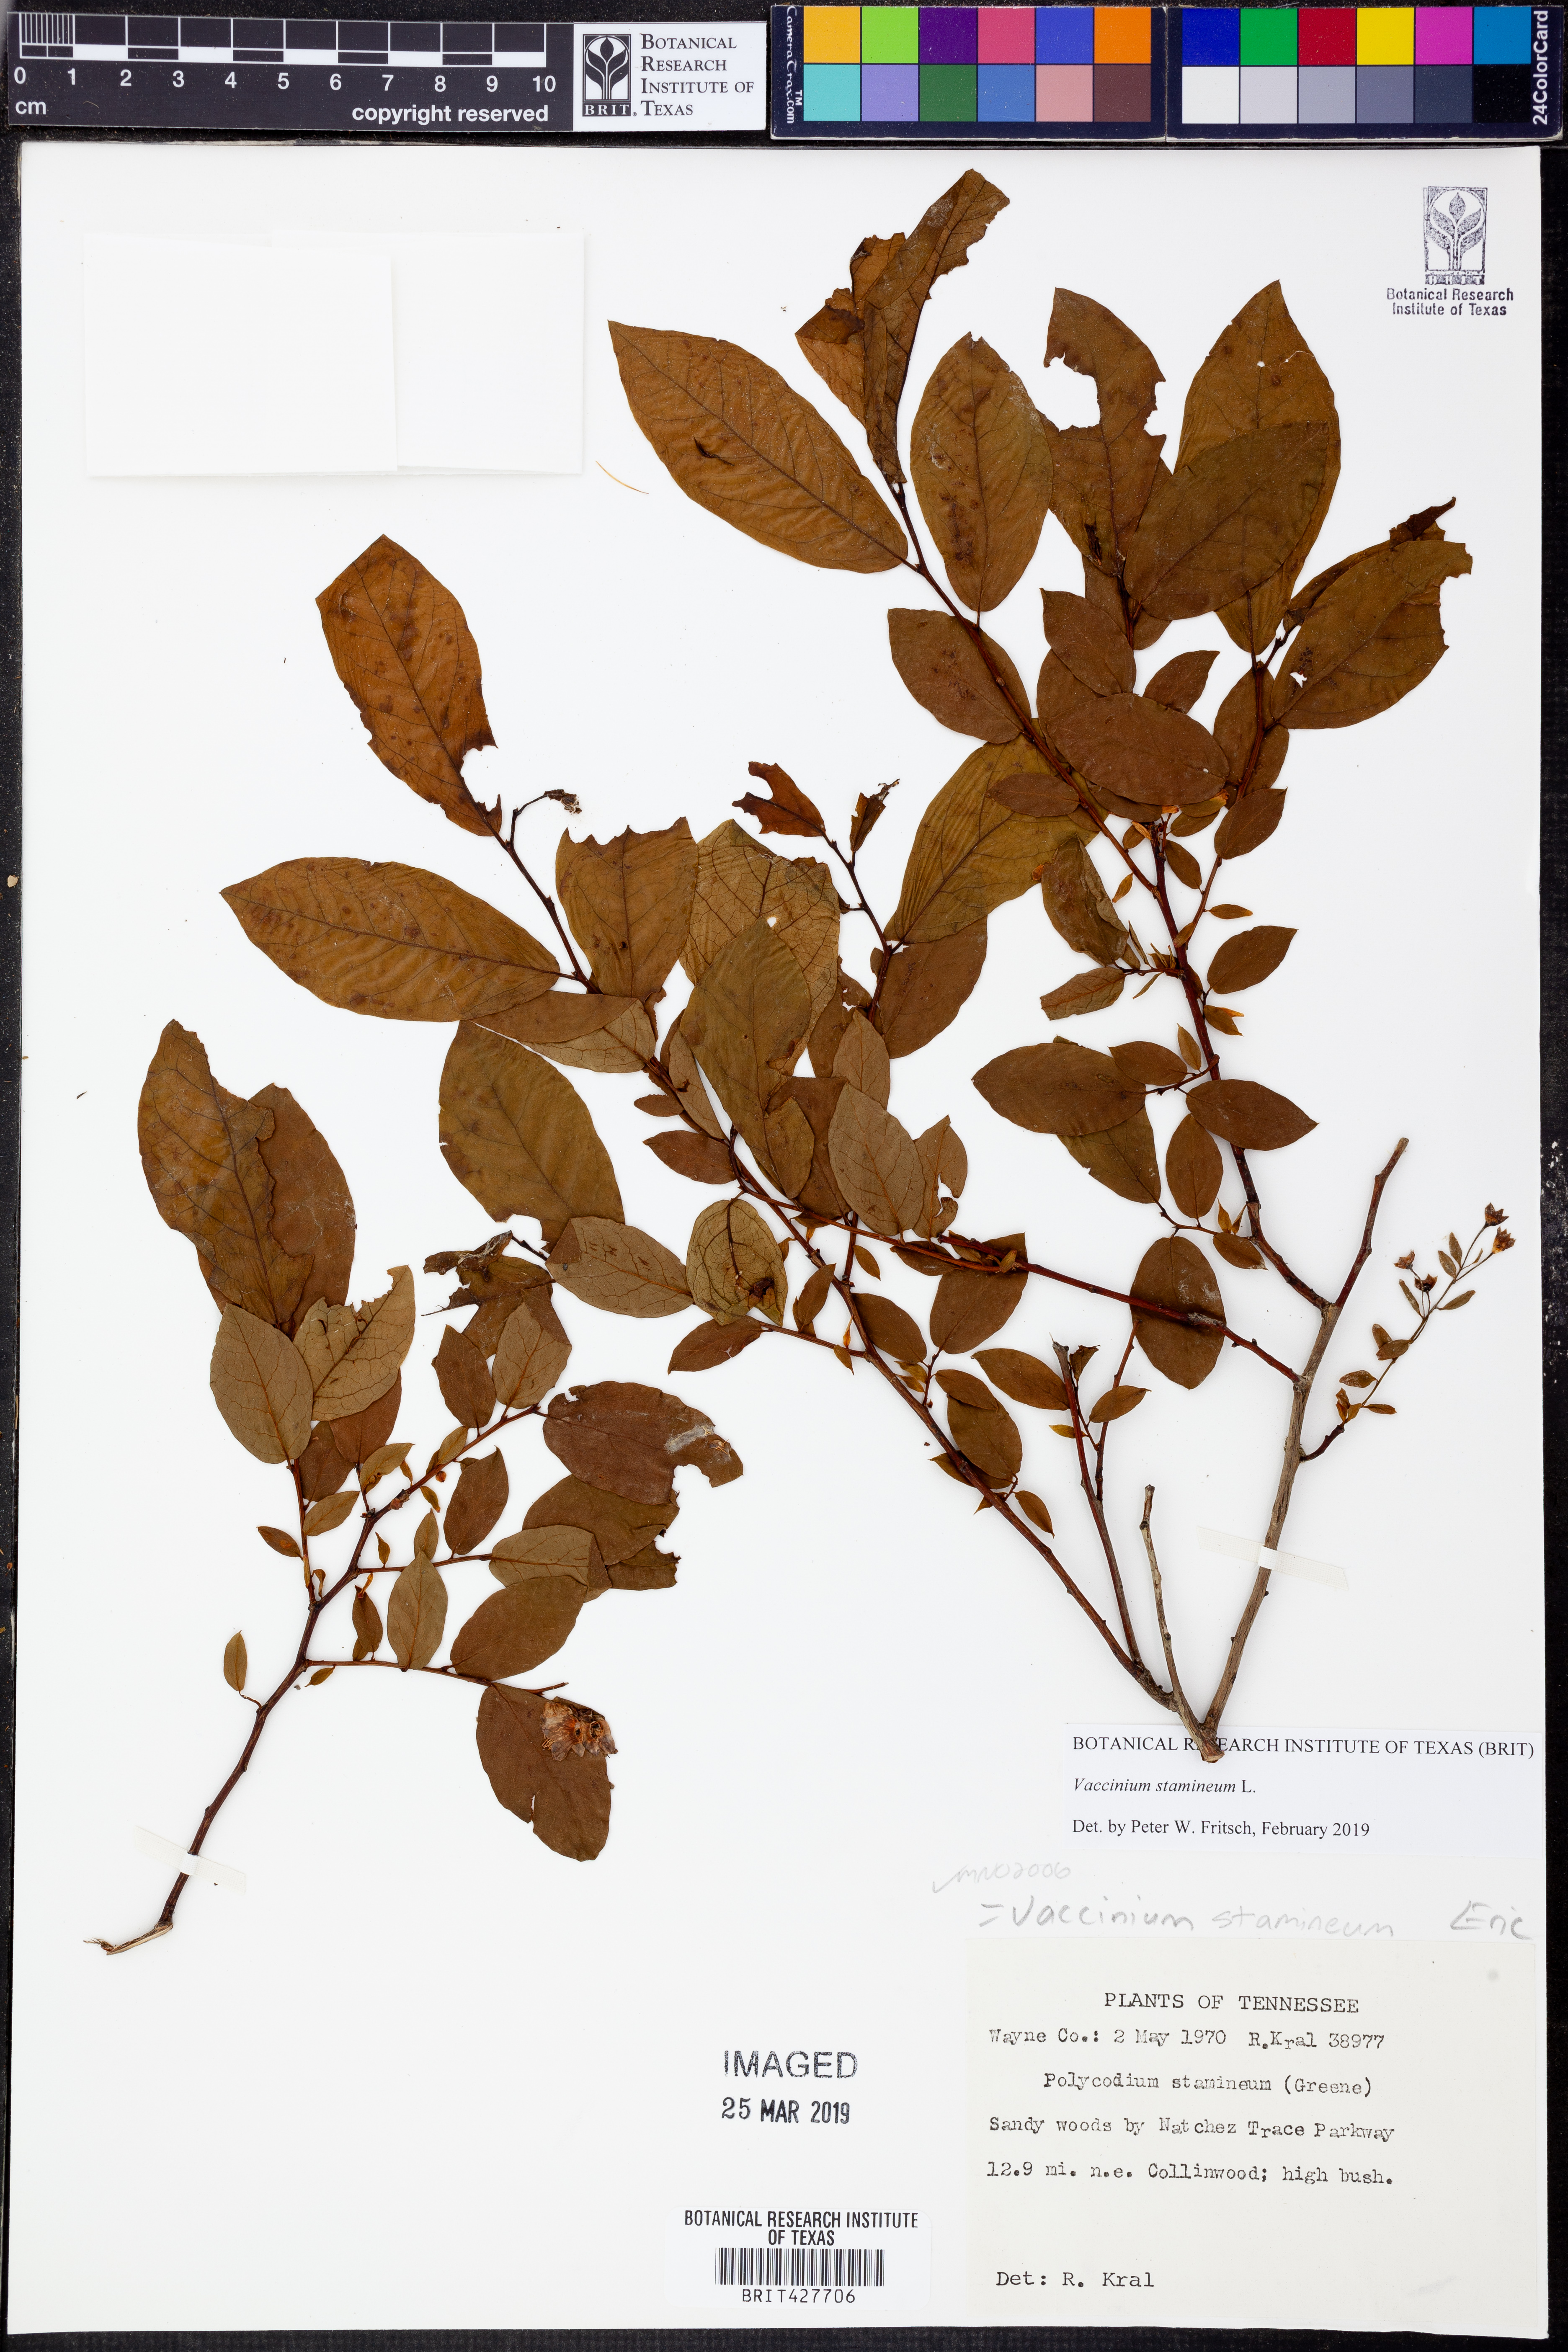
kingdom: Plantae
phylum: Tracheophyta
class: Magnoliopsida
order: Ericales
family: Ericaceae
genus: Vaccinium
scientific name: Vaccinium stamineum
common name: Deerberry
